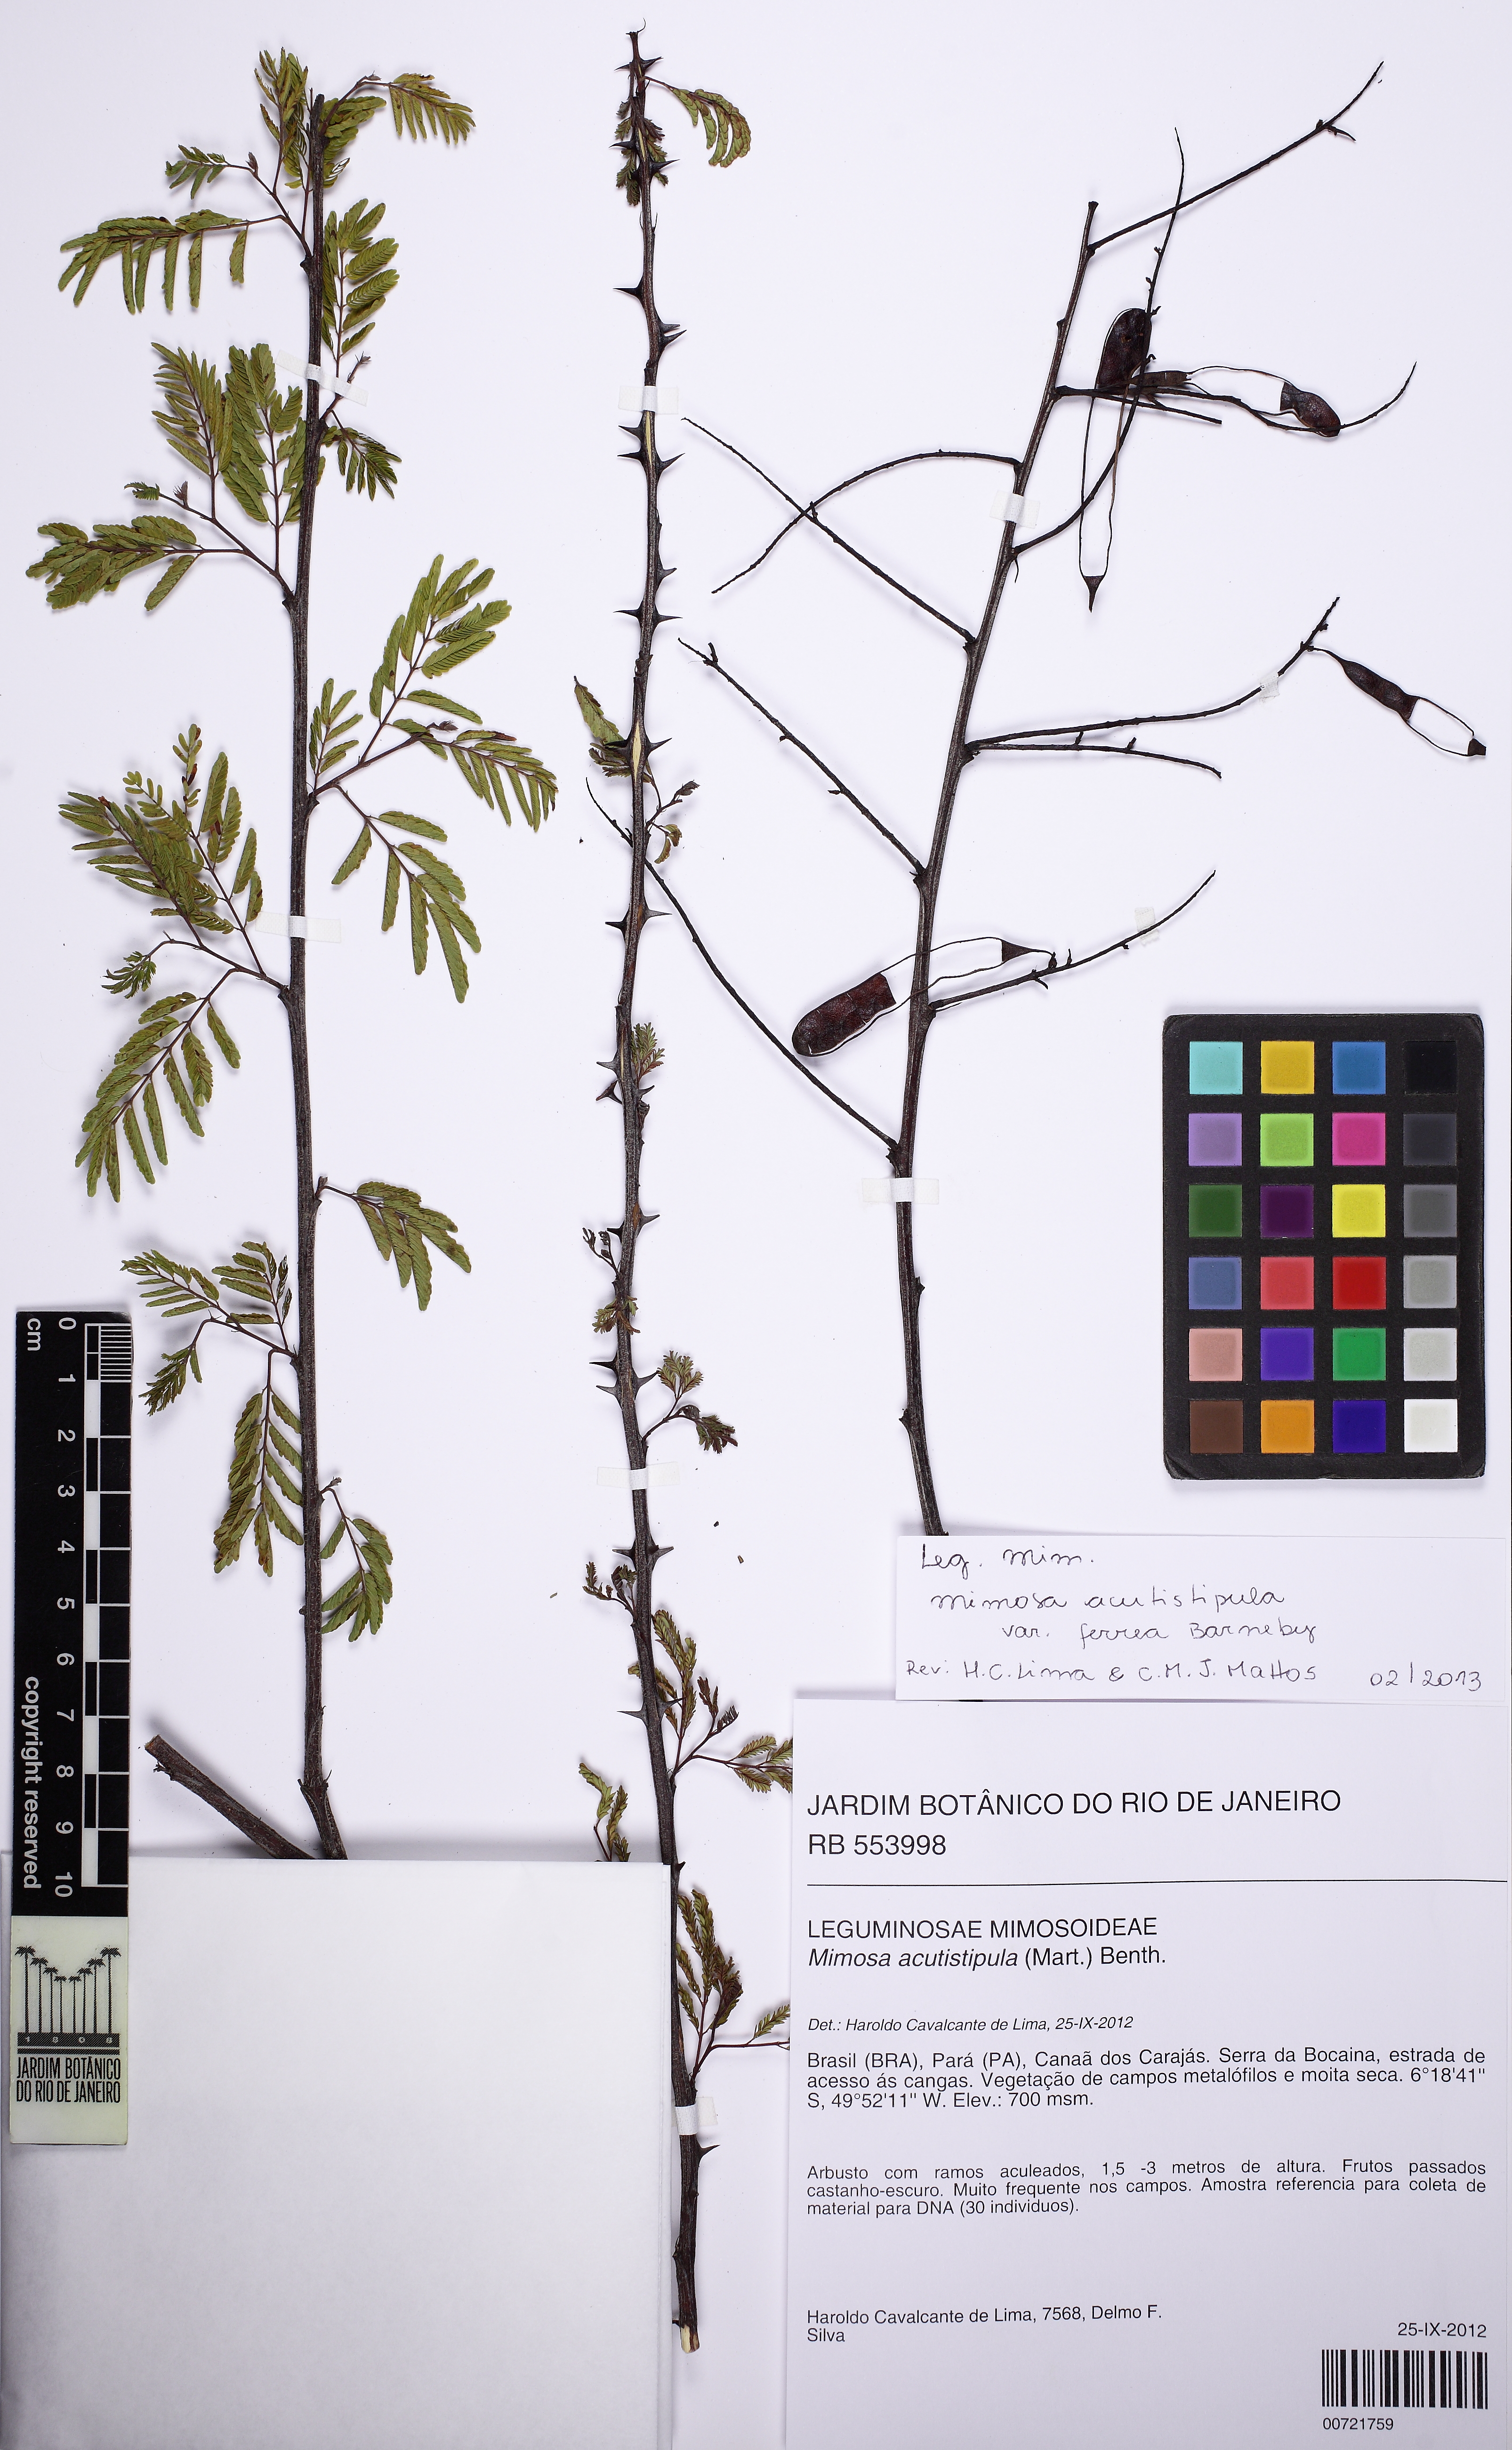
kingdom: Plantae
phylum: Tracheophyta
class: Magnoliopsida
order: Fabales
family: Fabaceae
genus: Mimosa
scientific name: Mimosa acutistipula
